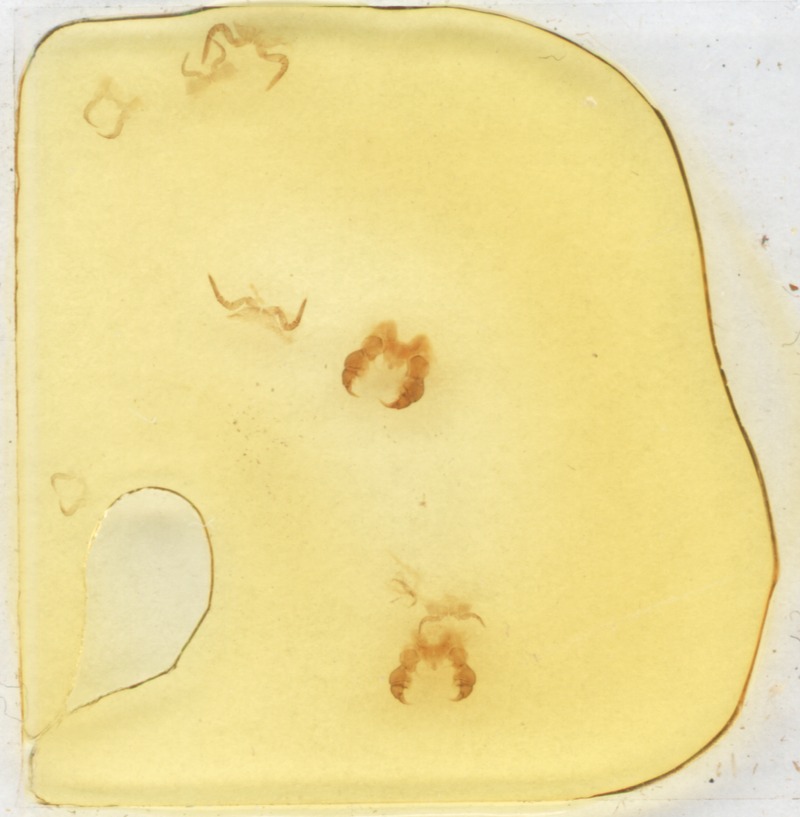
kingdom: Animalia
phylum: Arthropoda
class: Diplopoda
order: Glomerida
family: Glomeridae
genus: Glomeris
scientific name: Glomeris klugii
